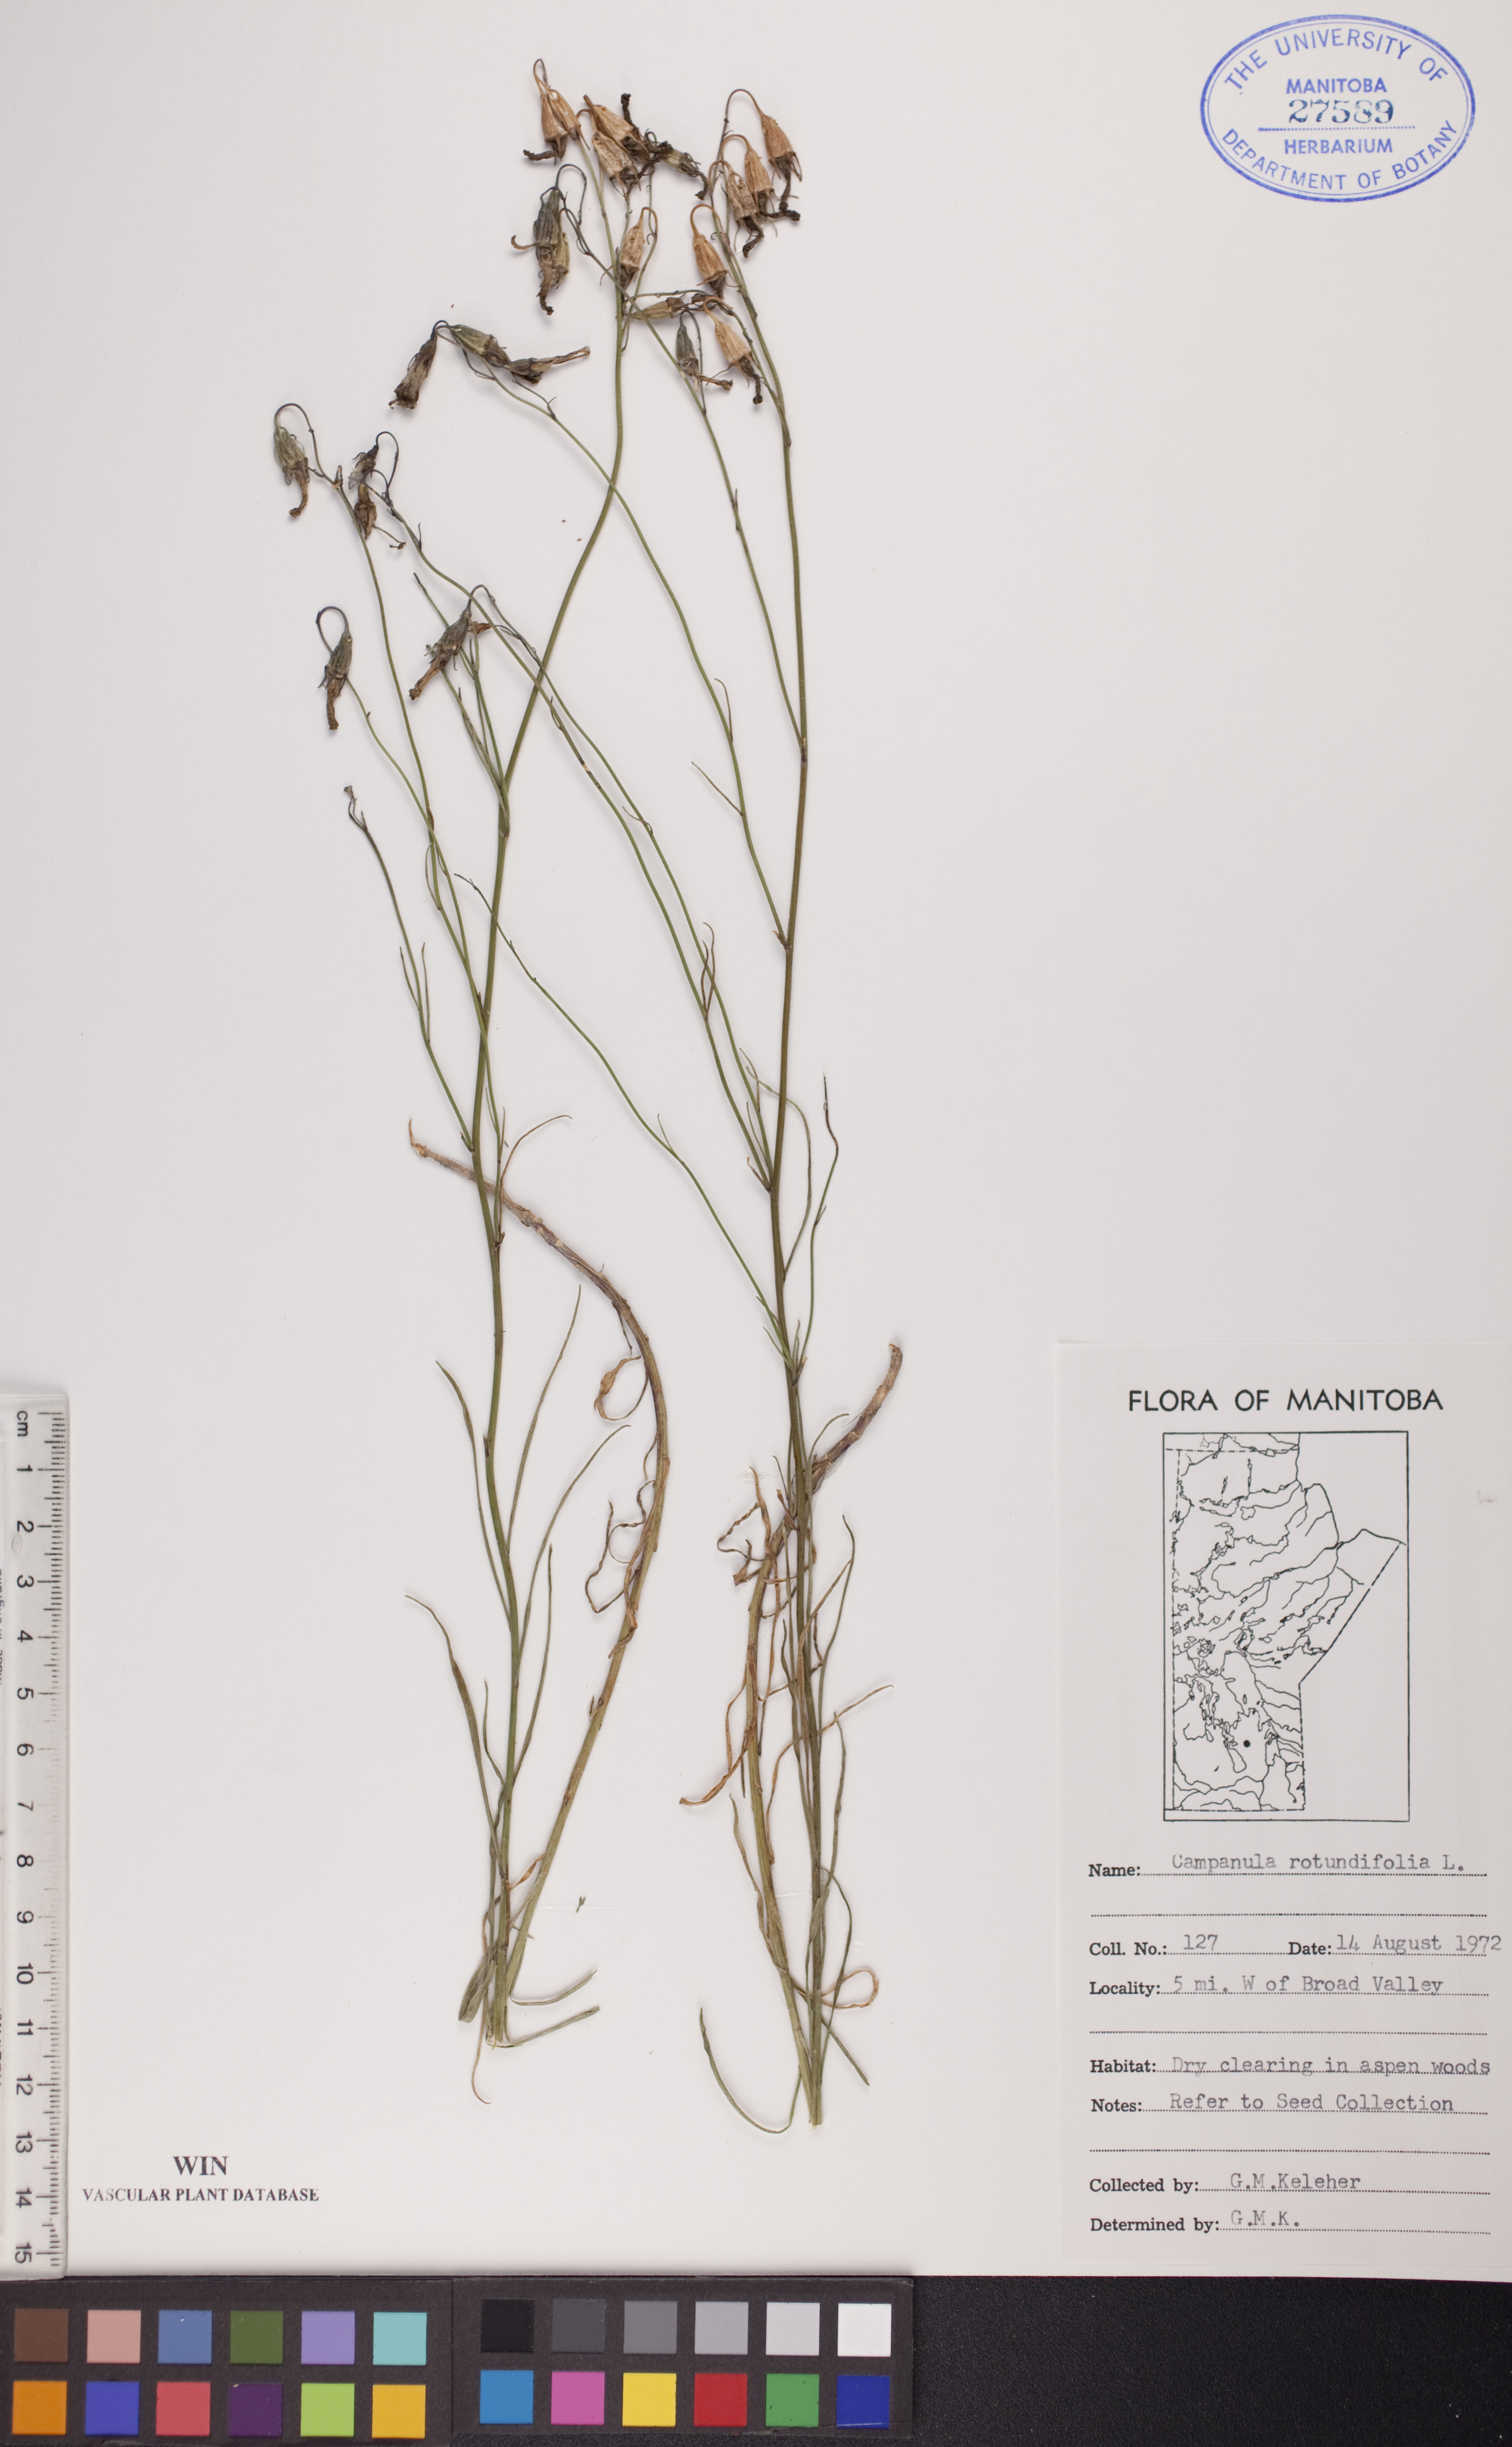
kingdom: Plantae
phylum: Tracheophyta
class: Magnoliopsida
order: Asterales
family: Campanulaceae
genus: Campanula
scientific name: Campanula rotundifolia
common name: Harebell
